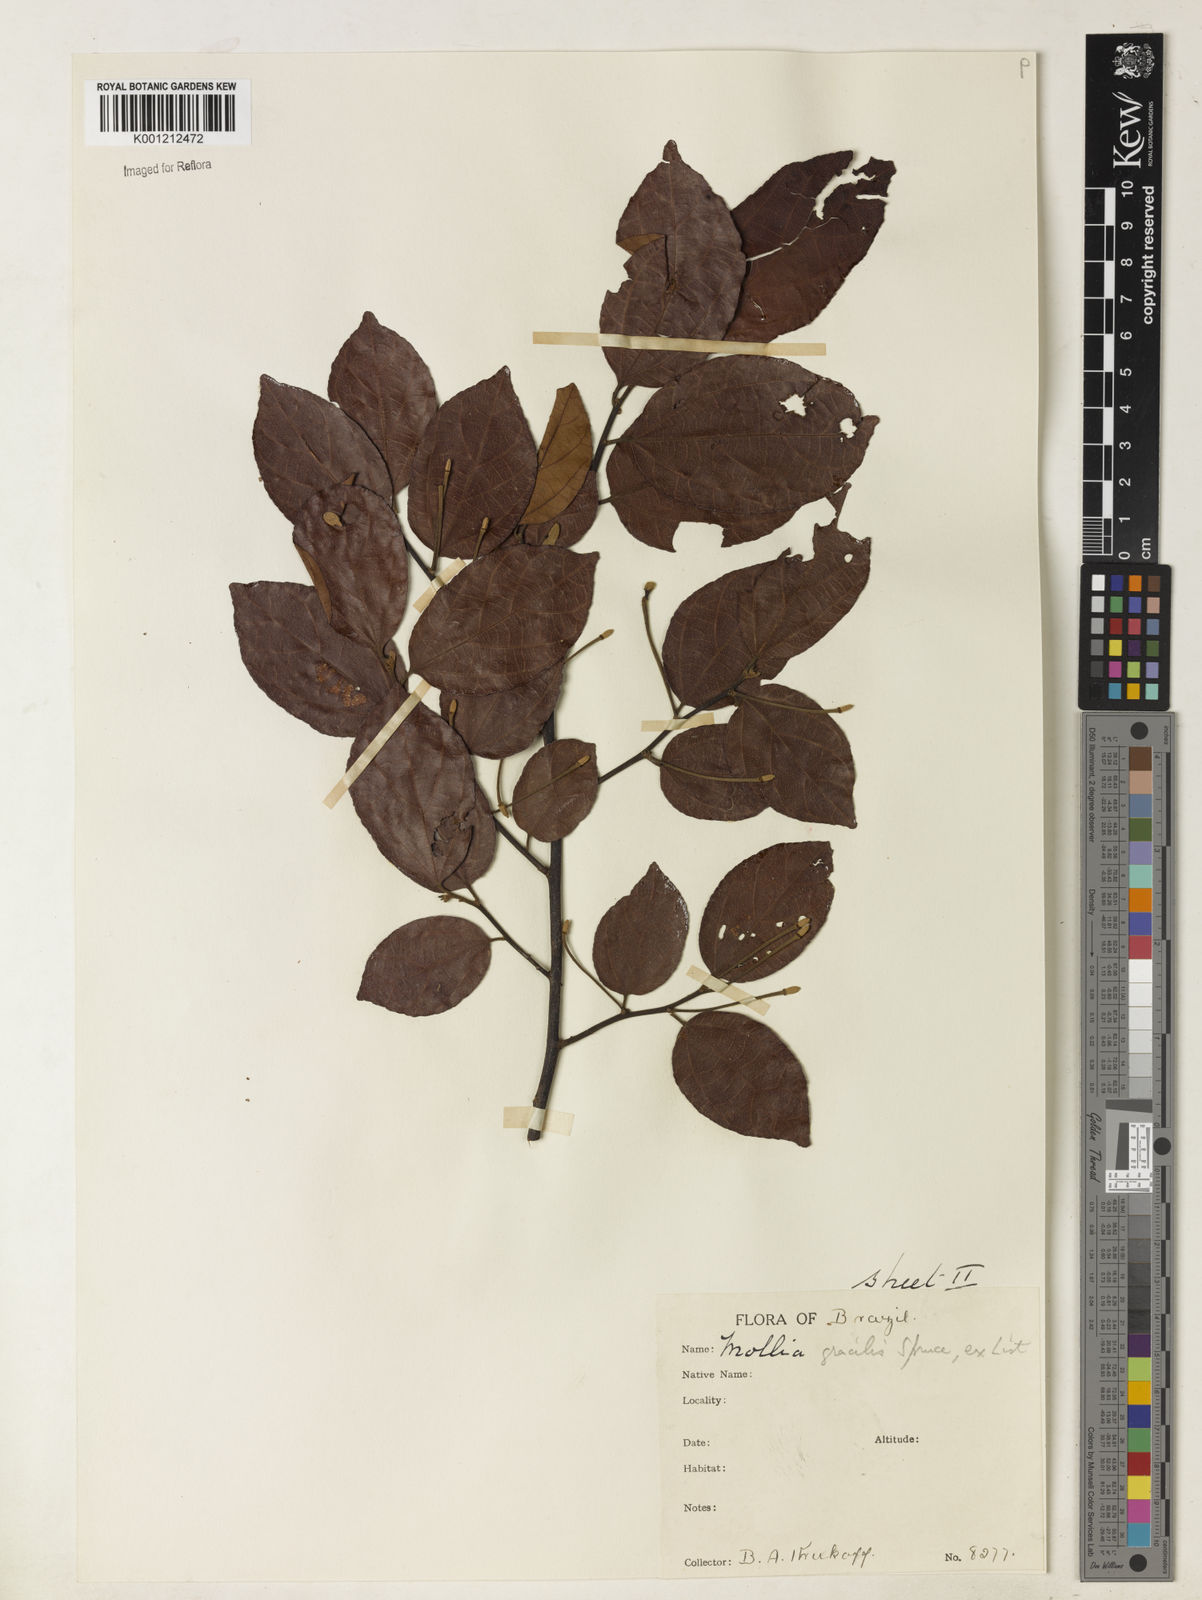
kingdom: Plantae
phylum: Tracheophyta
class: Magnoliopsida
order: Malvales
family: Malvaceae
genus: Mollia
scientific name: Mollia gracilis
